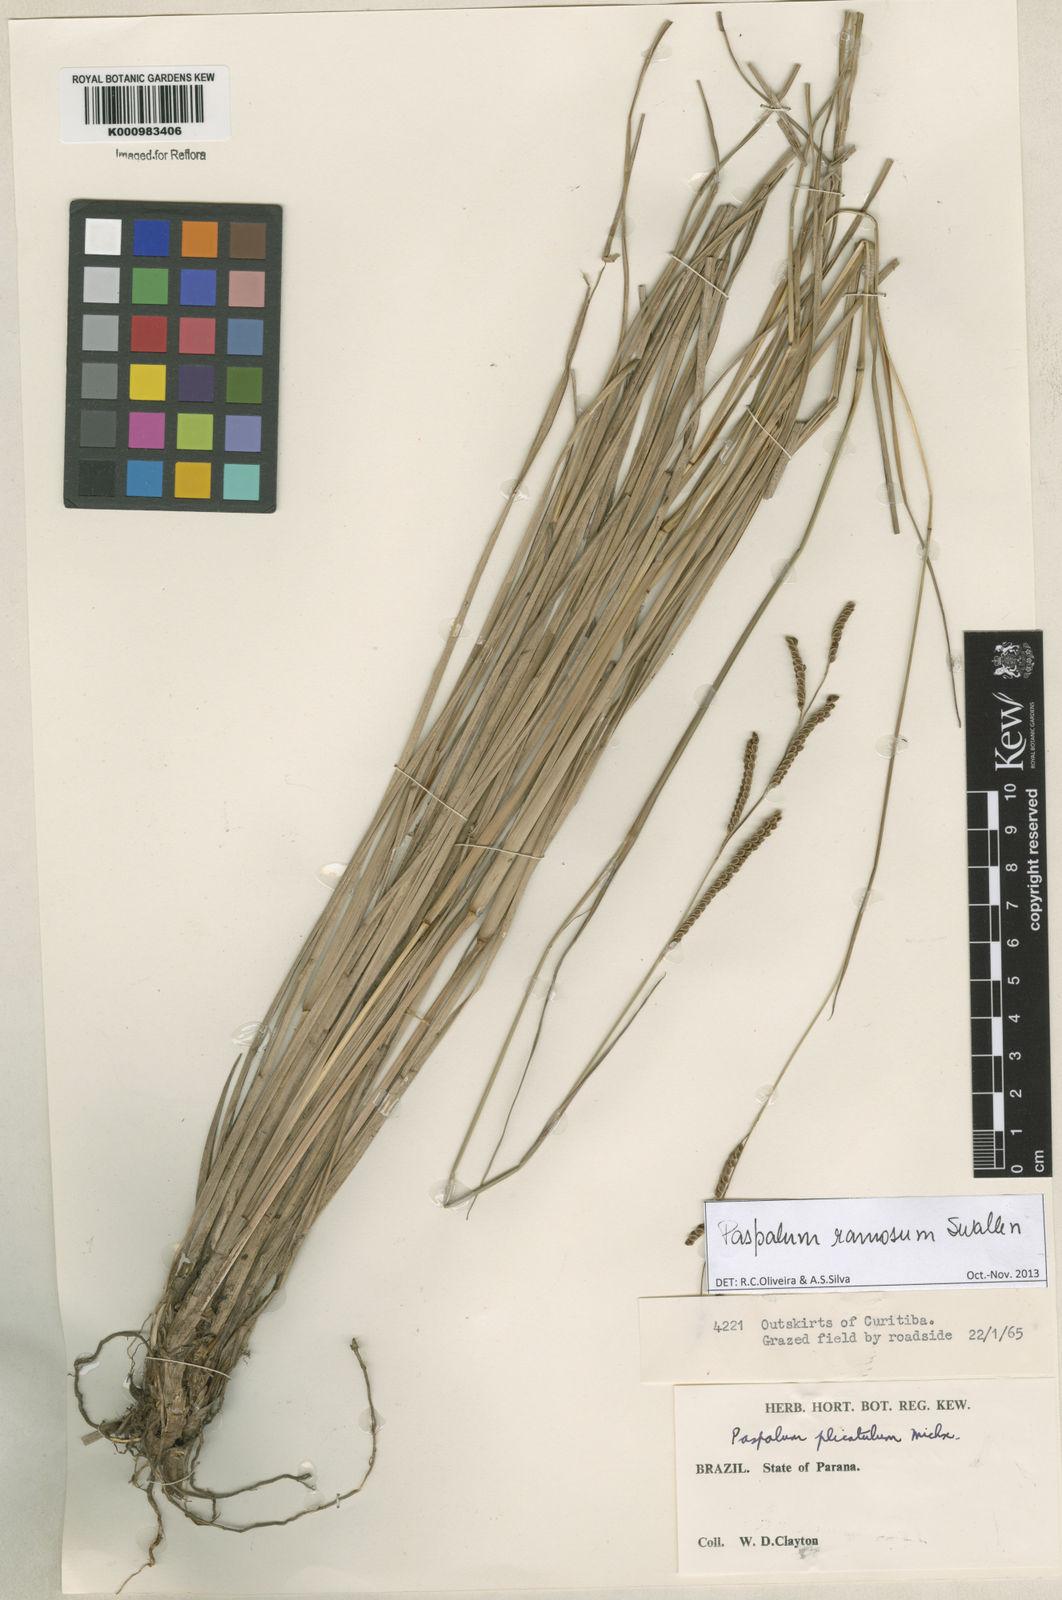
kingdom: Plantae
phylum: Tracheophyta
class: Liliopsida
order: Poales
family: Poaceae
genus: Paspalum
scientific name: Paspalum plicatulum
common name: Top paspalum
